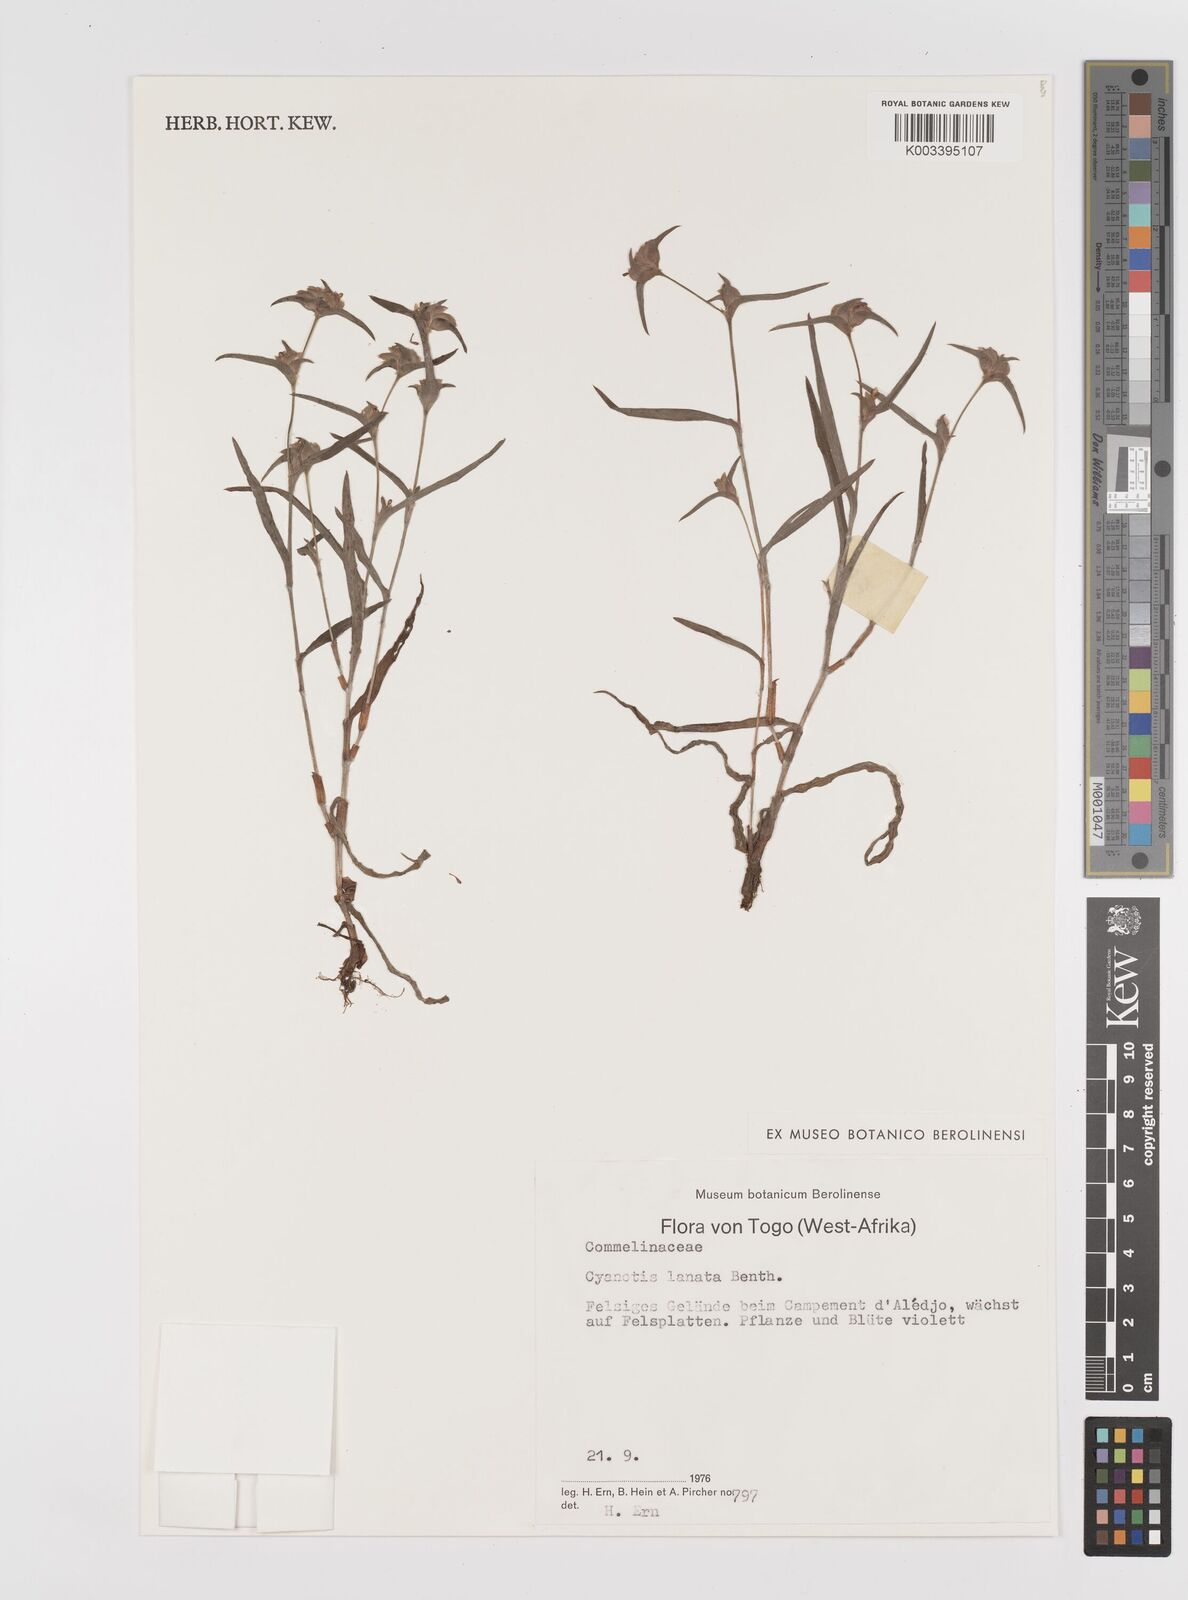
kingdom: Plantae
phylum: Tracheophyta
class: Liliopsida
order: Commelinales
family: Commelinaceae
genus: Cyanotis
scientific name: Cyanotis lanata
